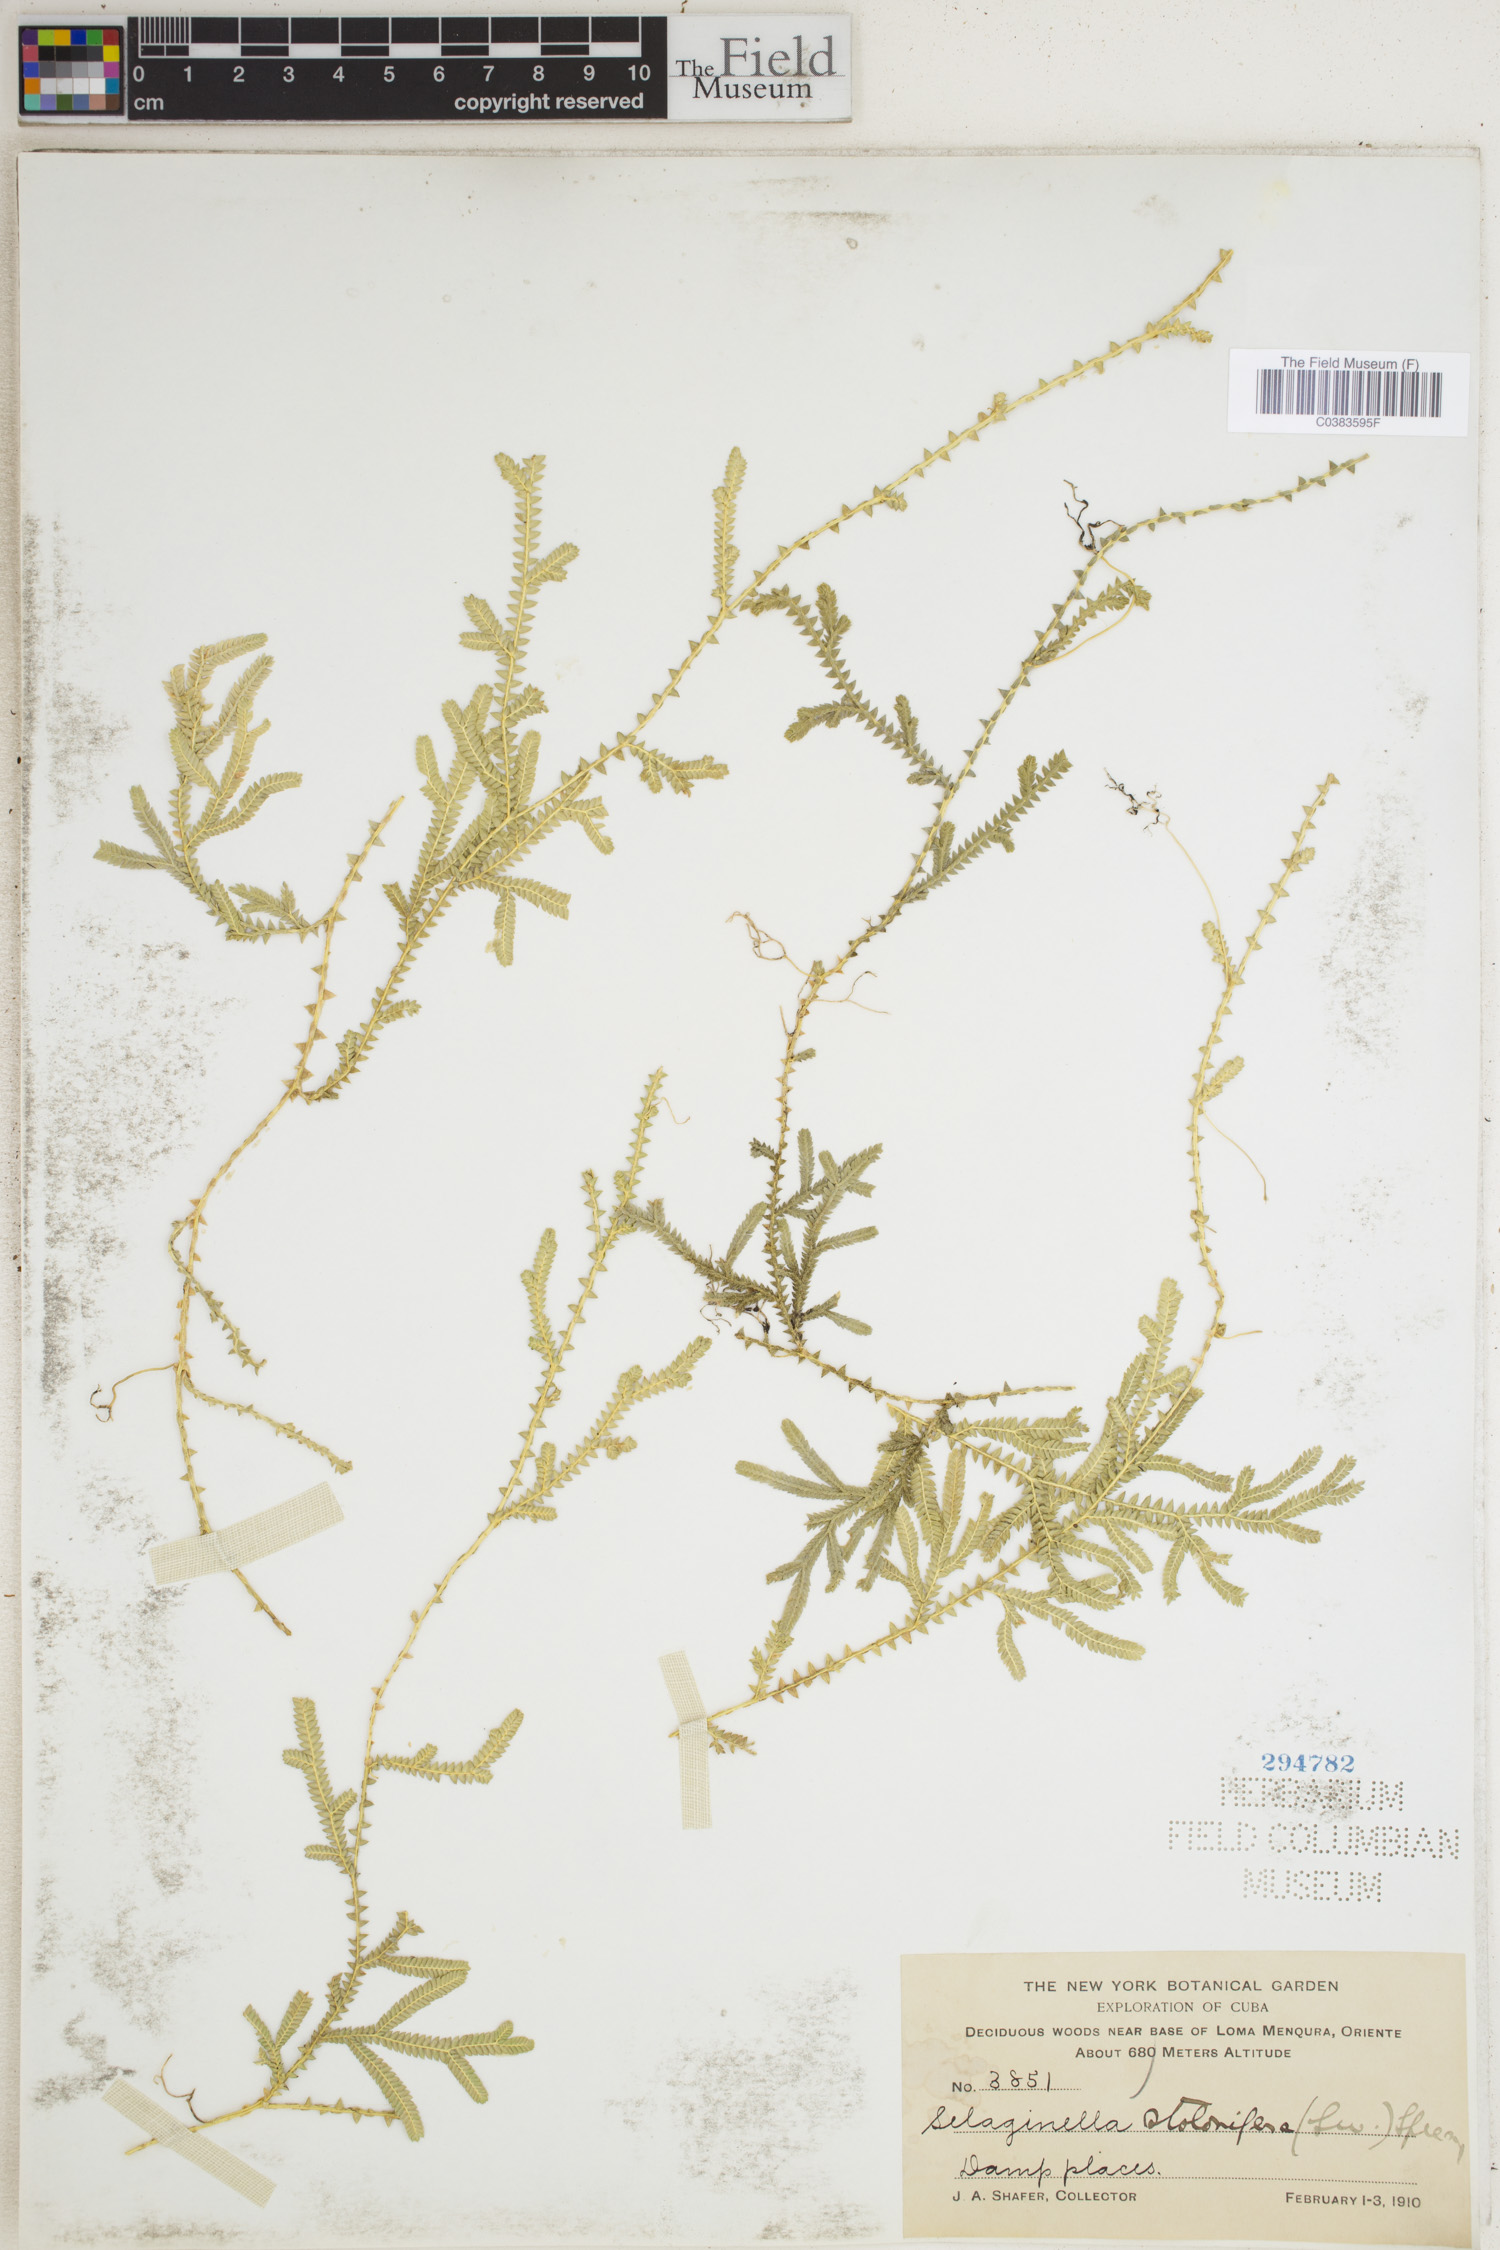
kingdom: Plantae
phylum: Tracheophyta
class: Lycopodiopsida
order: Selaginellales
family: Selaginellaceae
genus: Selaginella
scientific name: Selaginella plumosa
